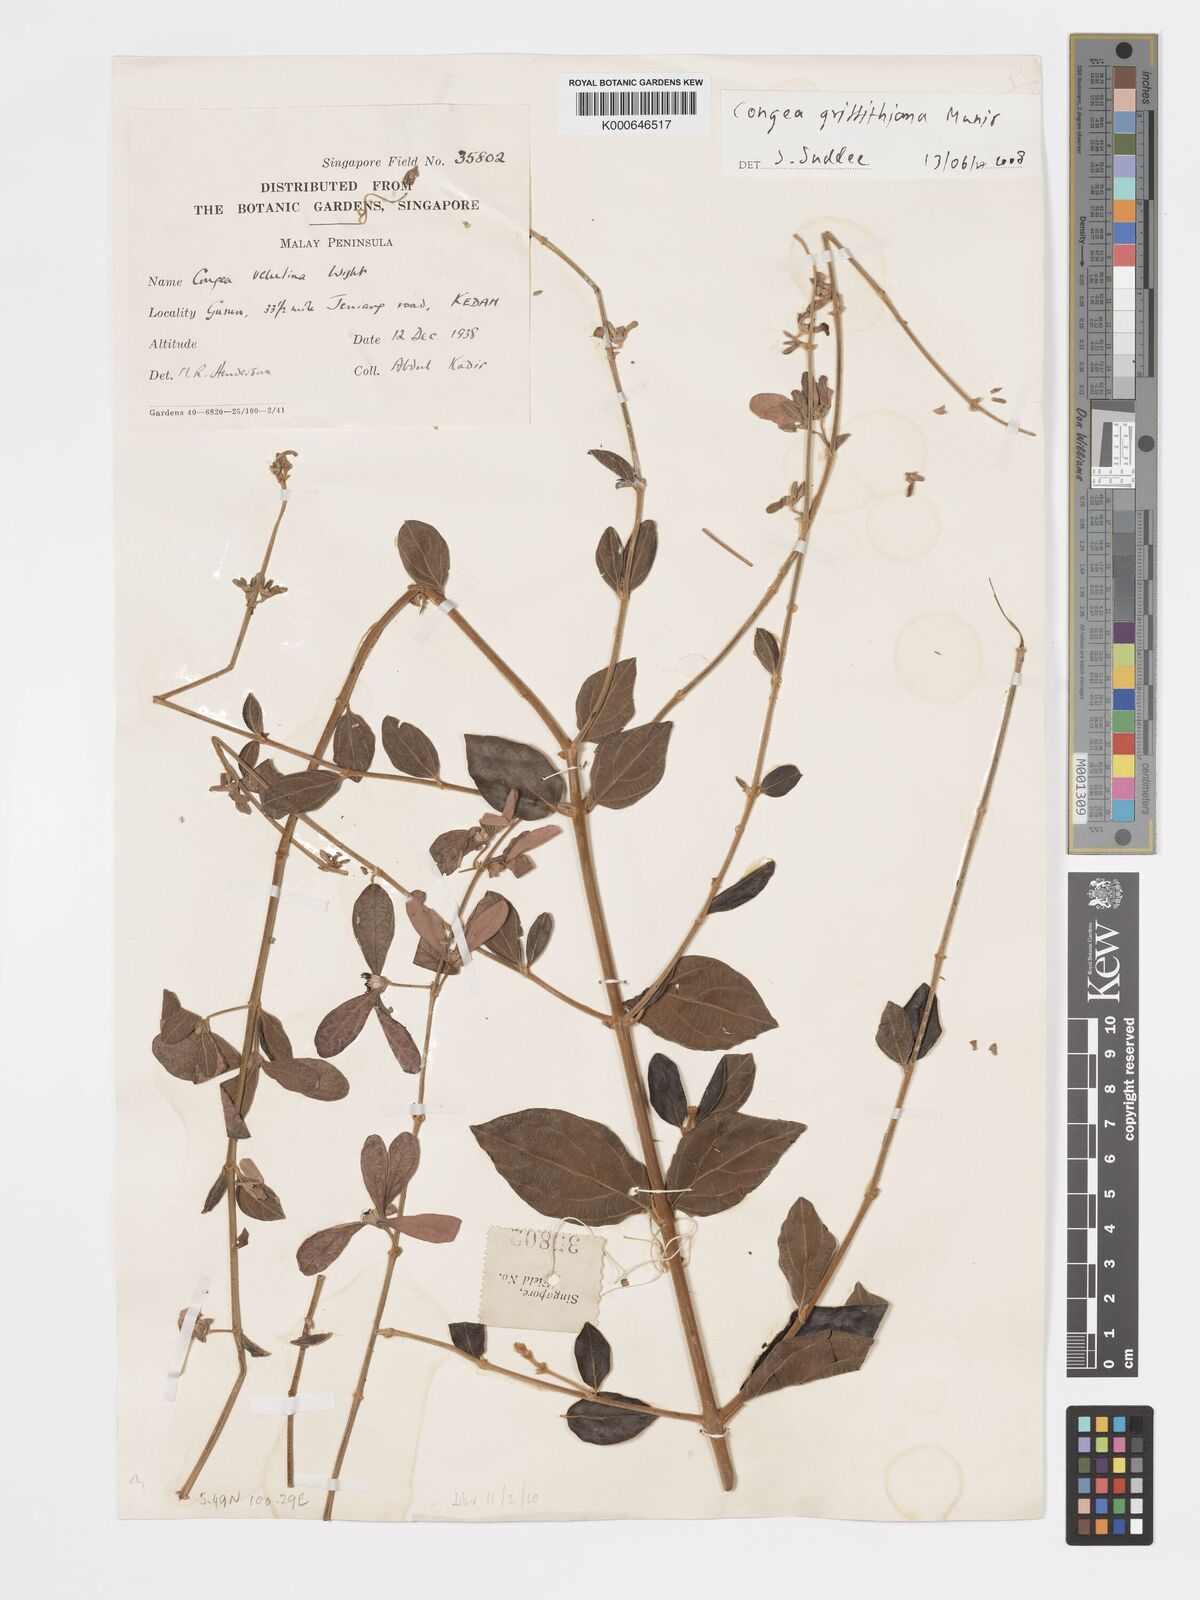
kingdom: Plantae
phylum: Tracheophyta
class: Magnoliopsida
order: Lamiales
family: Lamiaceae
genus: Congea
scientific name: Congea griffithiana
